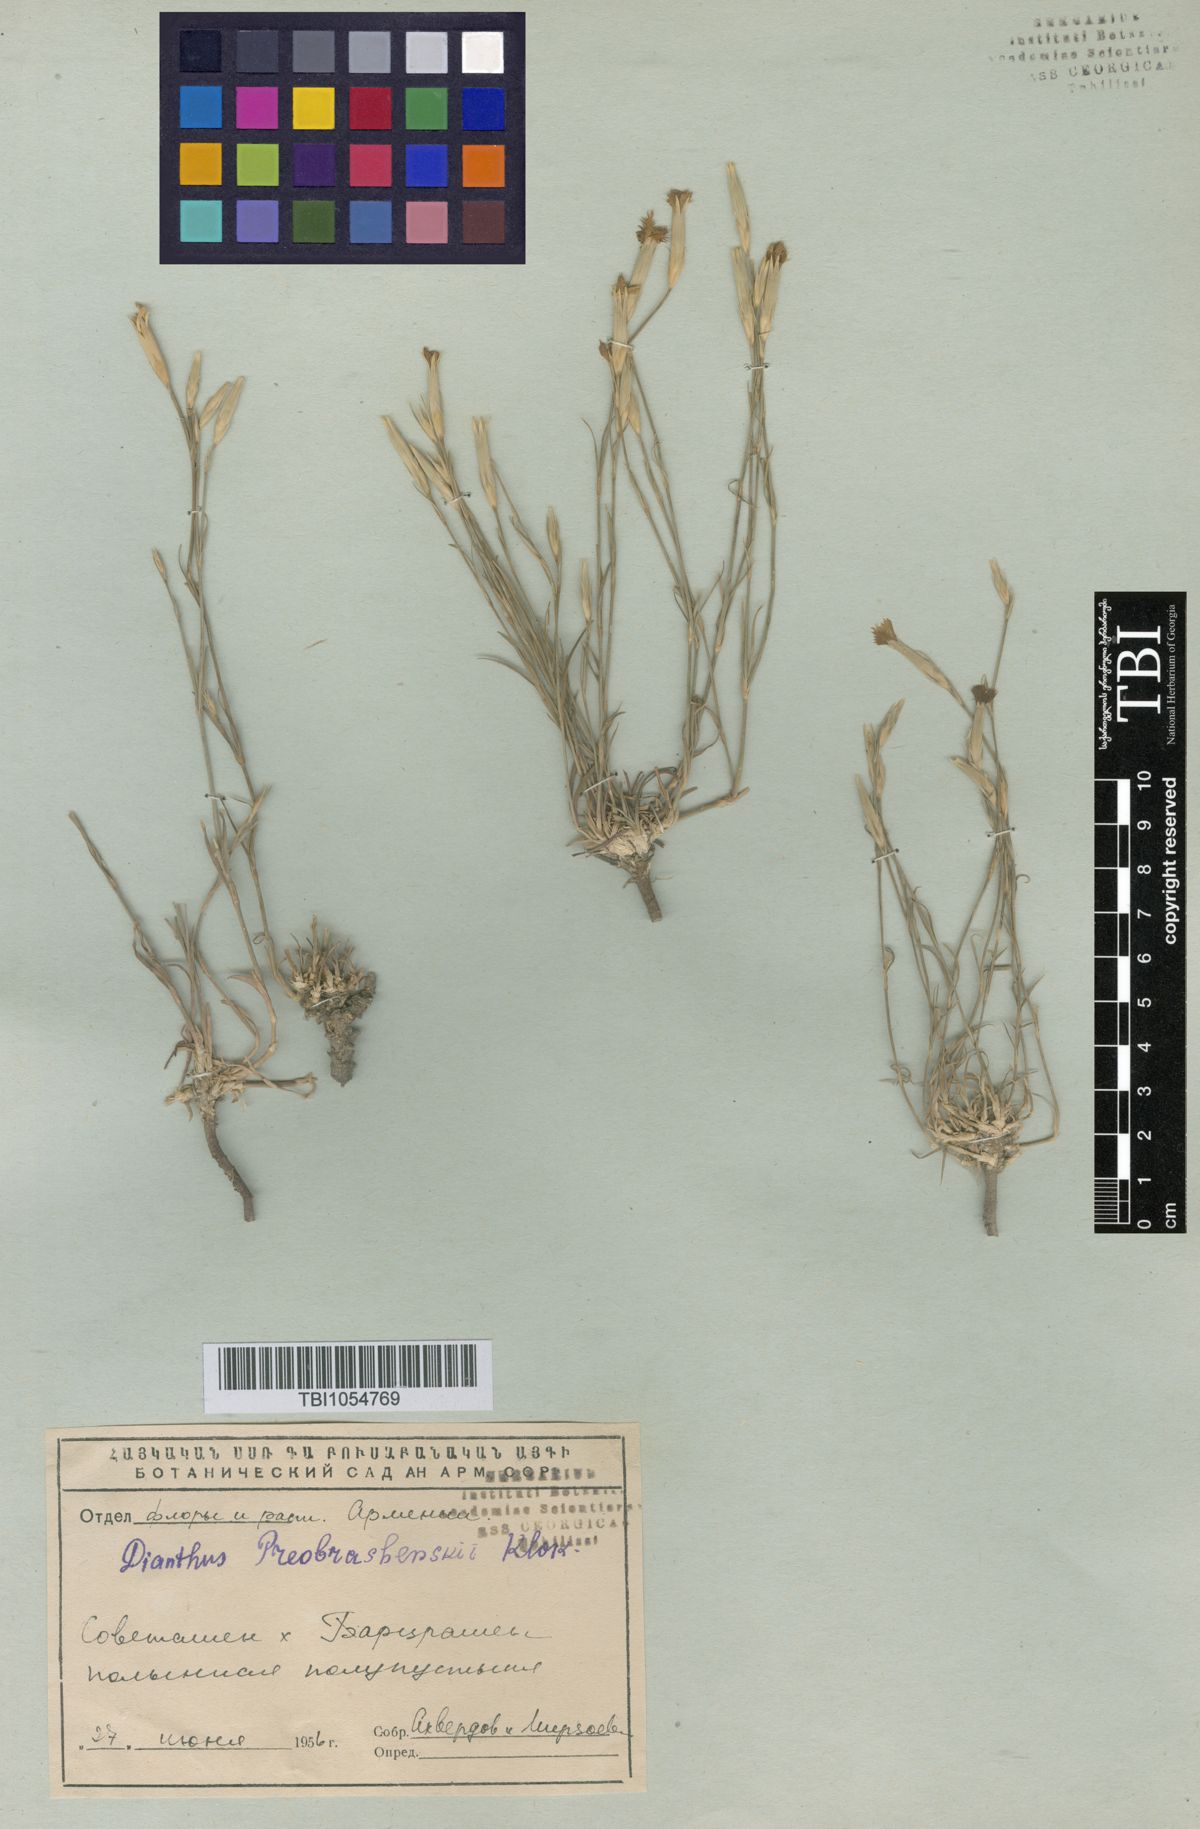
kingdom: Plantae
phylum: Tracheophyta
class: Magnoliopsida
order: Caryophyllales
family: Caryophyllaceae
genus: Dianthus
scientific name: Dianthus bicolor
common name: Bicolour pink
